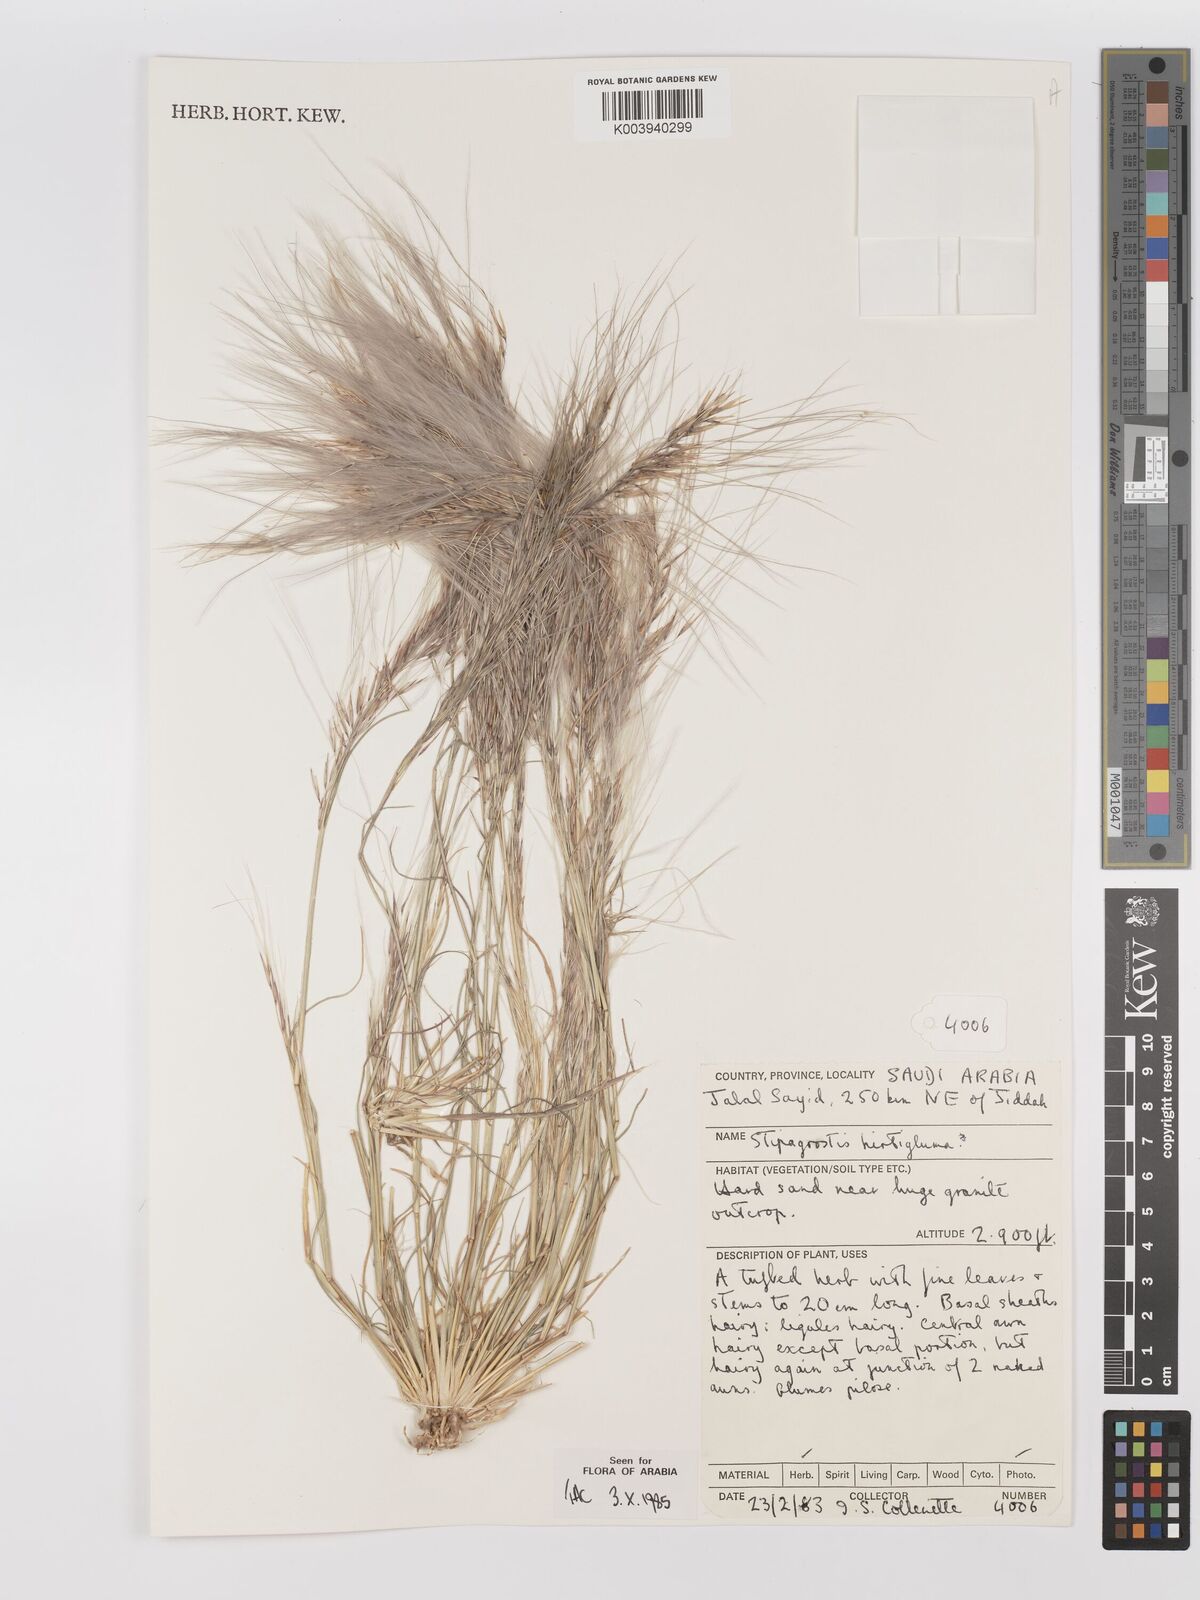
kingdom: Plantae
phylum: Tracheophyta
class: Liliopsida
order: Poales
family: Poaceae
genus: Stipagrostis
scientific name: Stipagrostis hirtigluma
